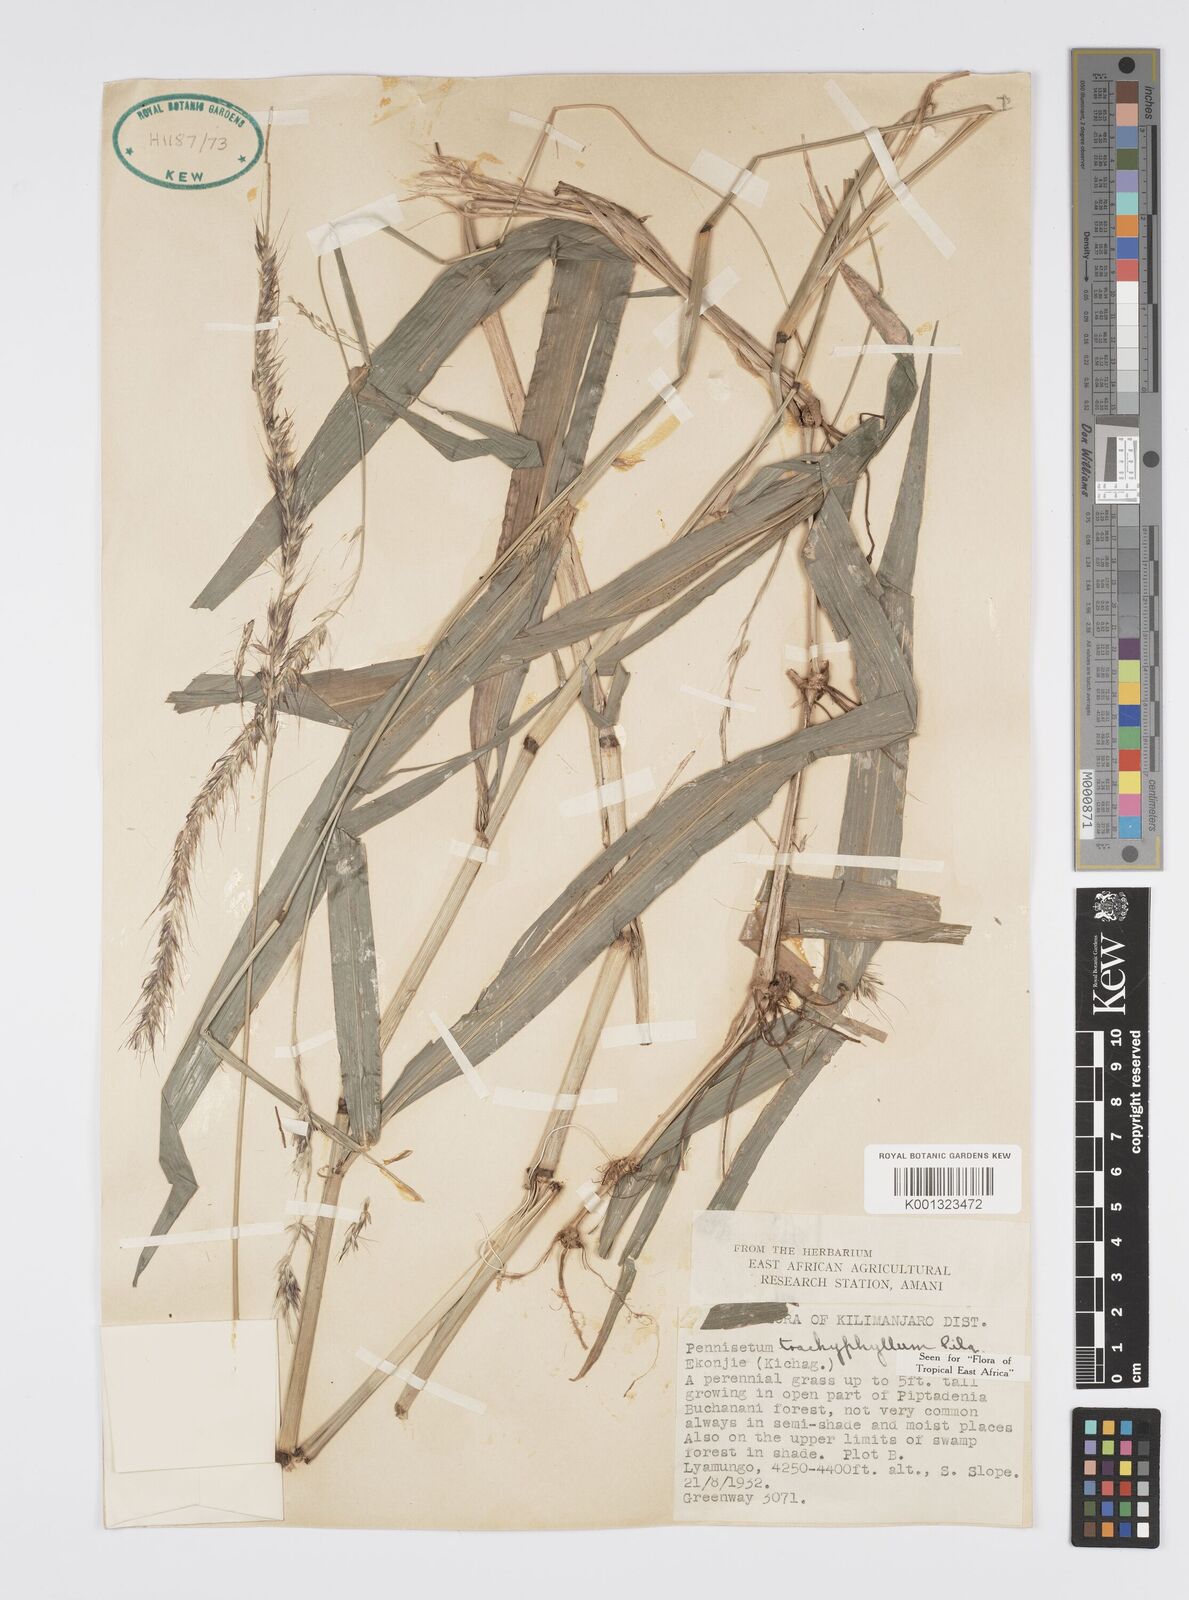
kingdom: Plantae
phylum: Tracheophyta
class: Liliopsida
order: Poales
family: Poaceae
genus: Cenchrus
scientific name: Cenchrus trachyphyllus
